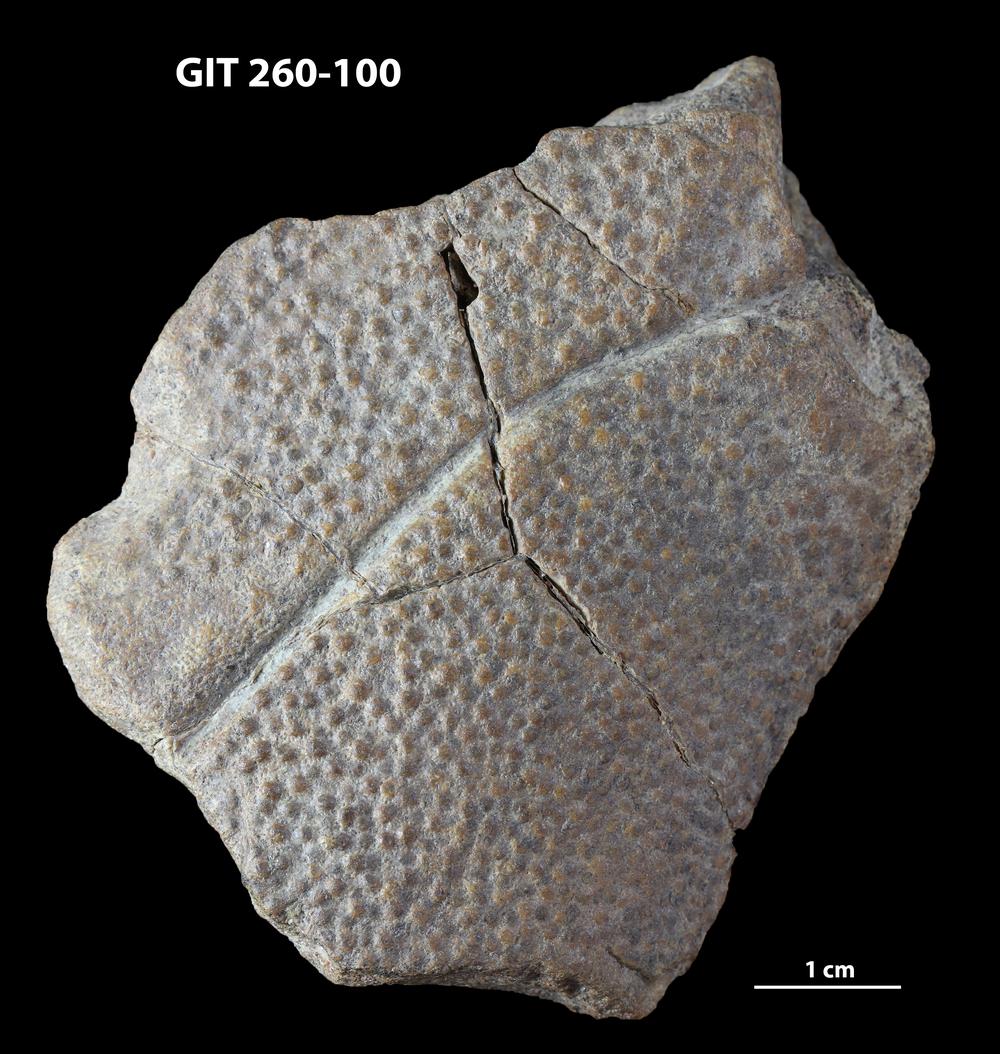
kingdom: Animalia
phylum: Chordata
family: Homostiidae
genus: Homostius
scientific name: Homostius
